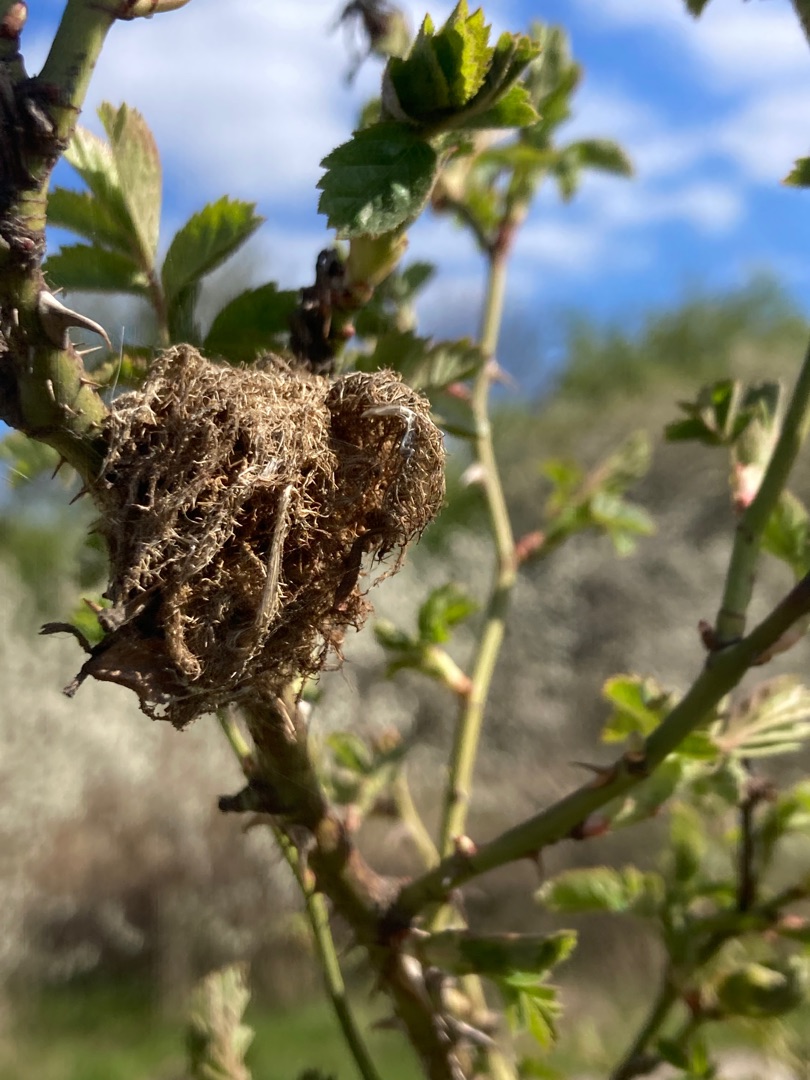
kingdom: Animalia
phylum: Arthropoda
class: Insecta
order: Hymenoptera
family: Cynipidae
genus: Diplolepis
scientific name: Diplolepis rosae
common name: Bedeguargalhveps
